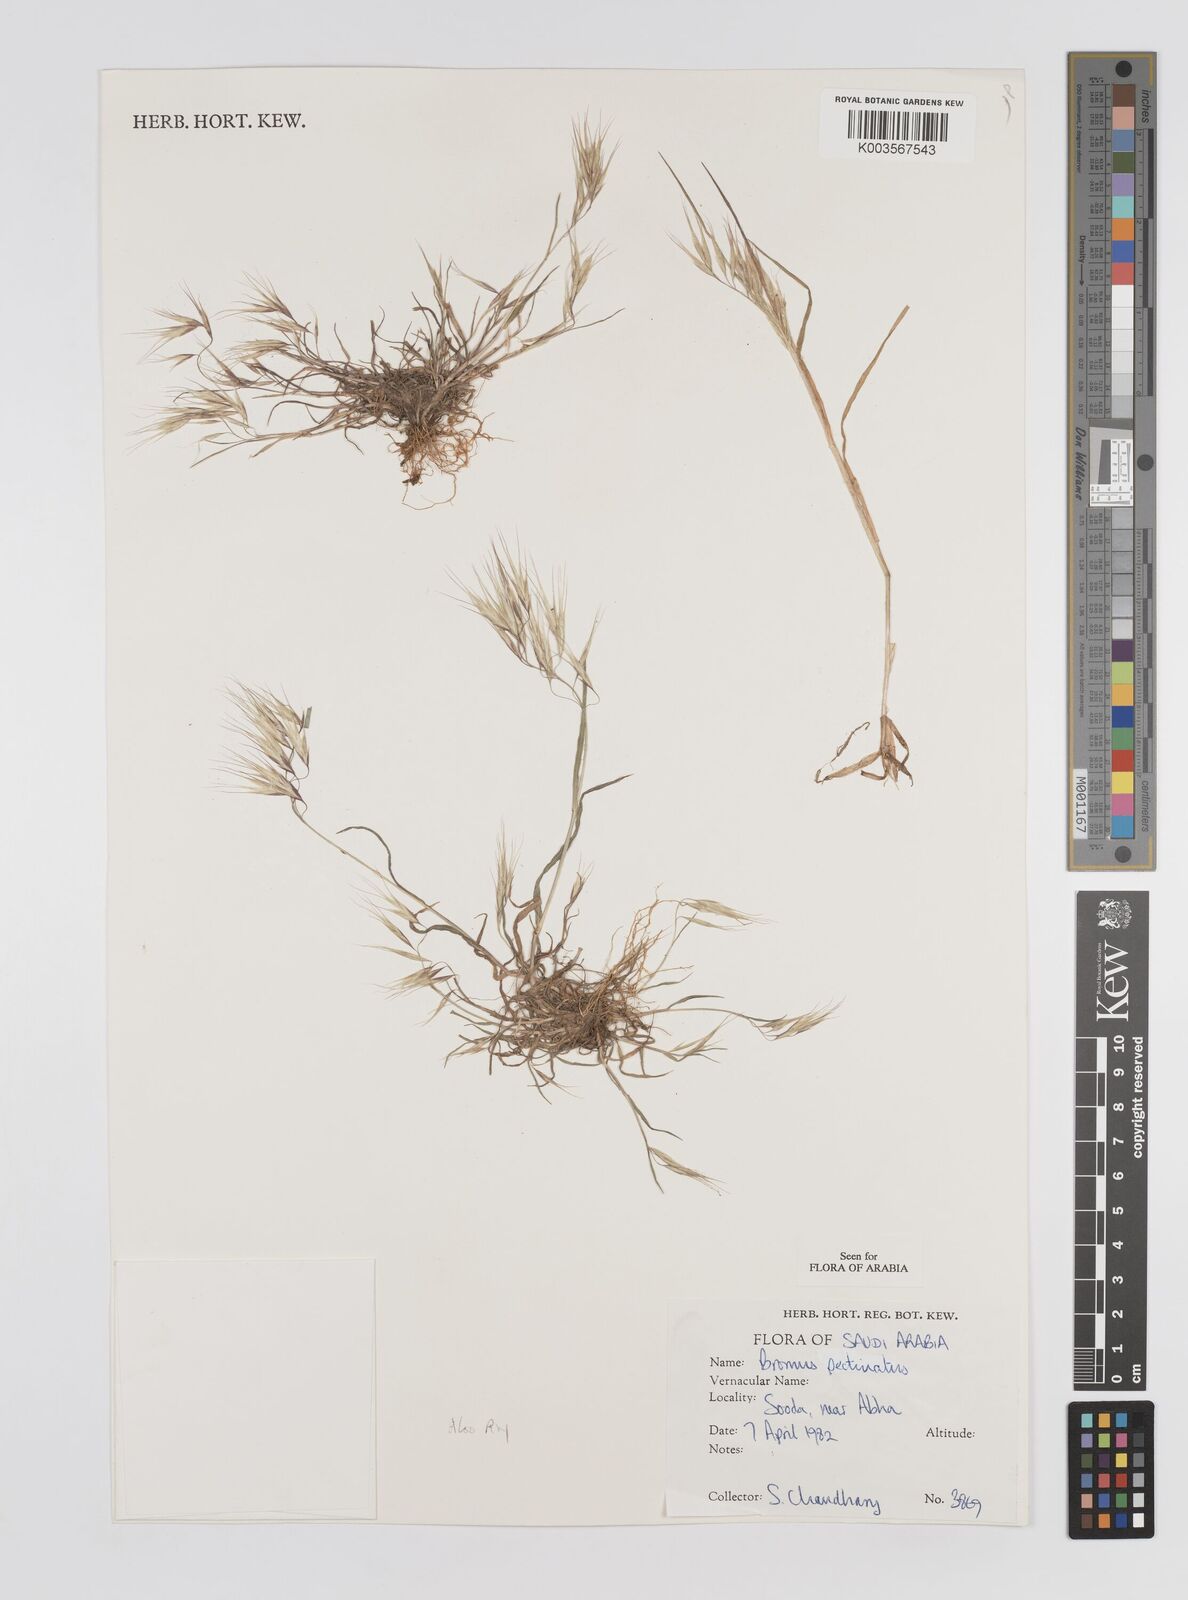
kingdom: Plantae
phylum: Tracheophyta
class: Liliopsida
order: Poales
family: Poaceae
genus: Bromus
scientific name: Bromus pectinatus
